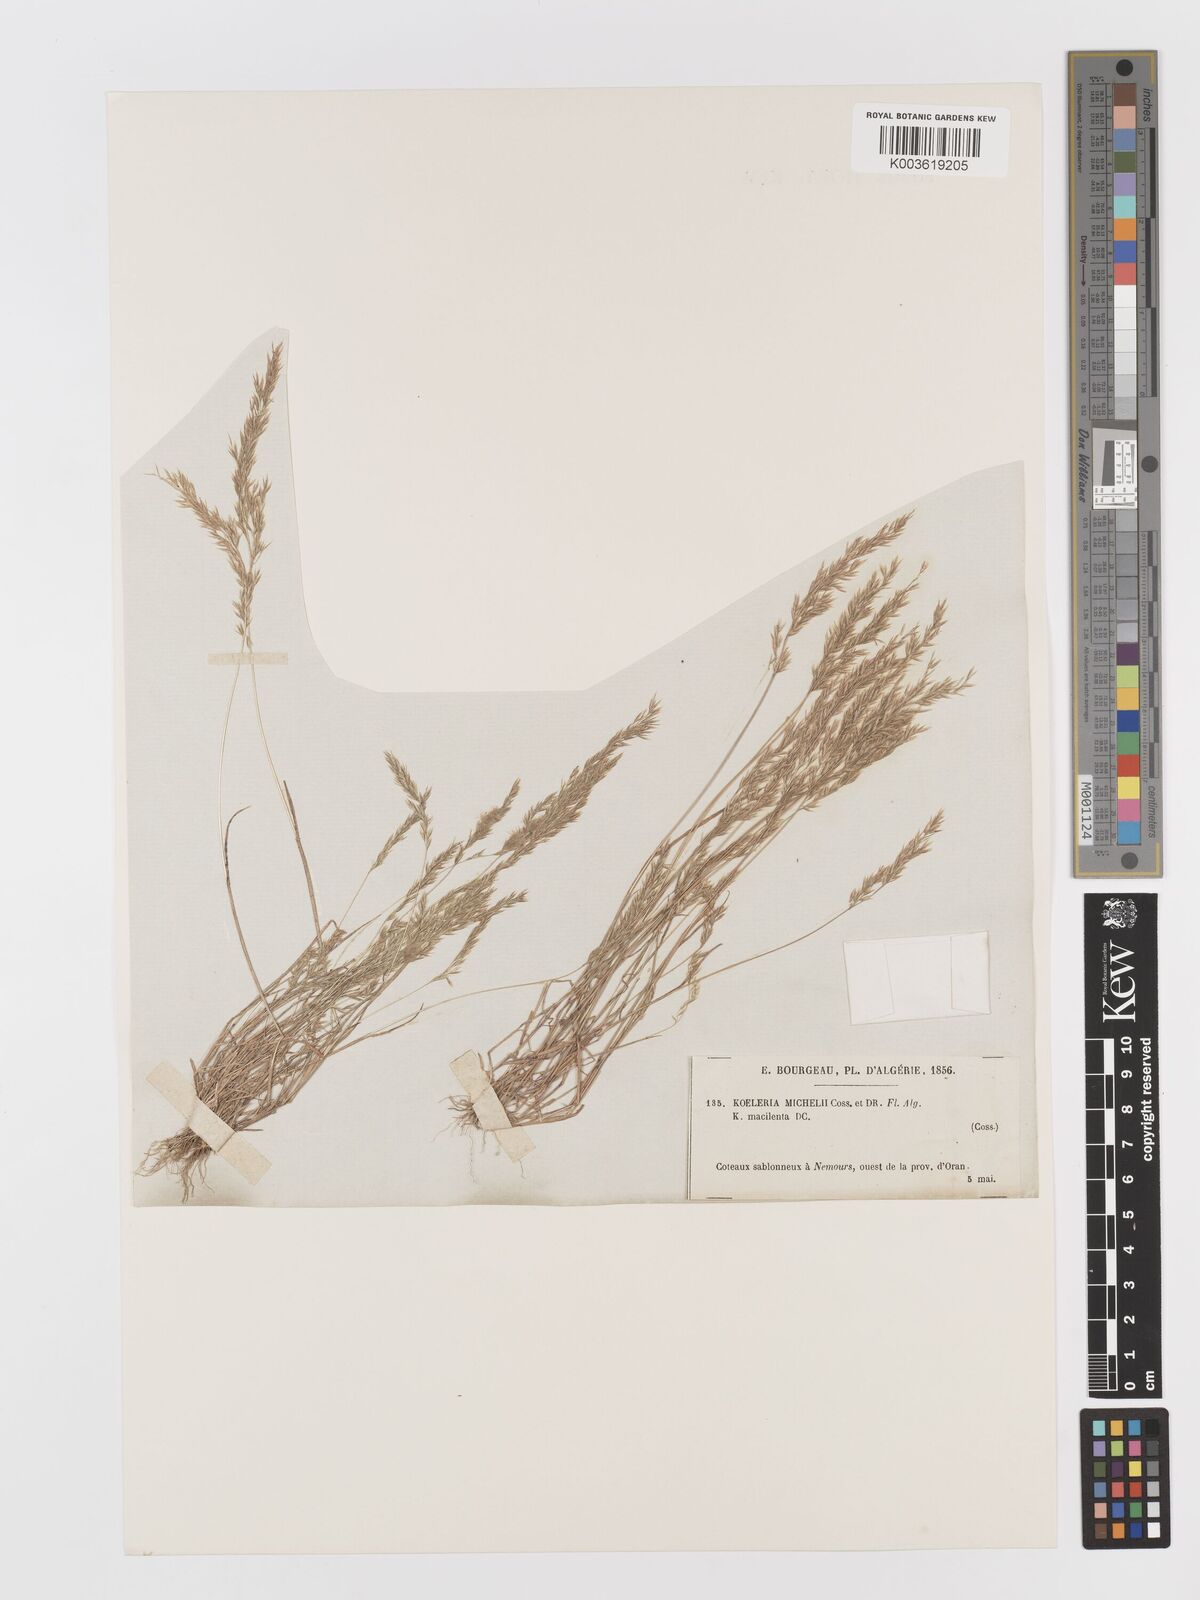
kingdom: Plantae
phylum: Tracheophyta
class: Liliopsida
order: Poales
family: Poaceae
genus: Avellinia
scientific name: Avellinia festucoides
